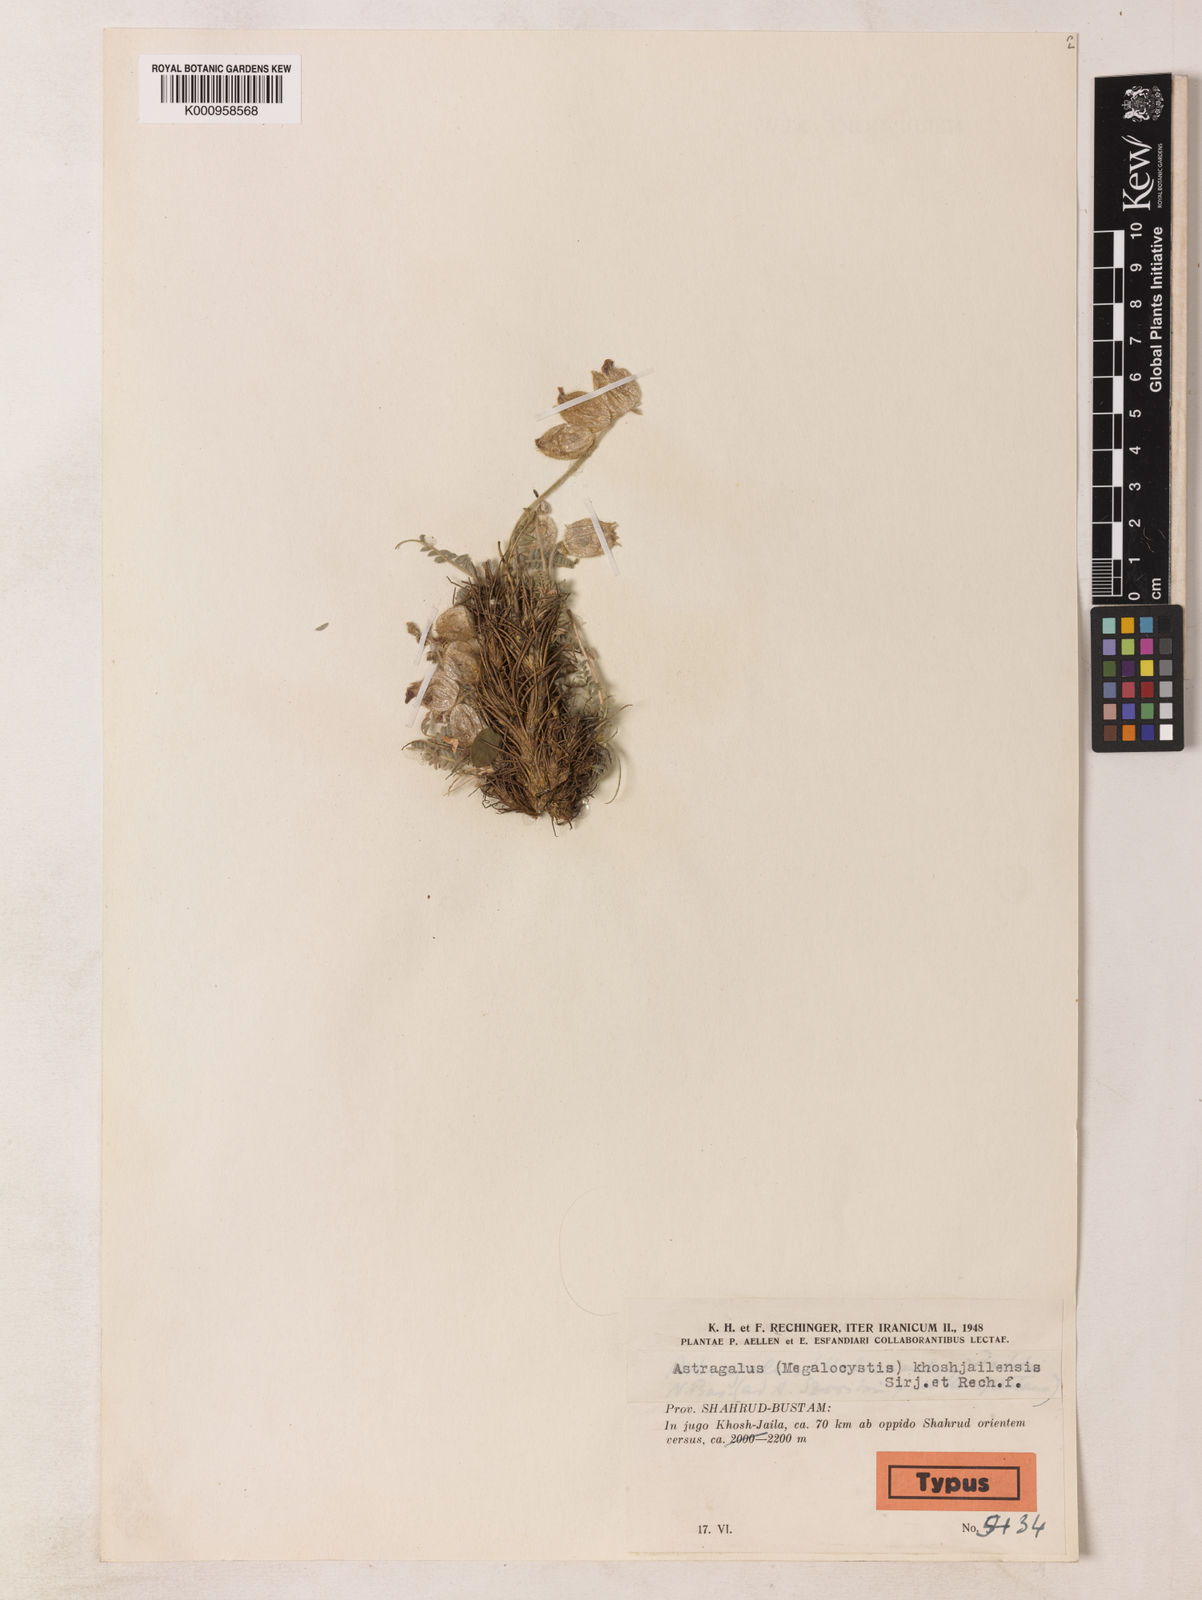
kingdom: Plantae
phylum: Tracheophyta
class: Magnoliopsida
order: Fabales
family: Fabaceae
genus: Astragalus
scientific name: Astragalus
